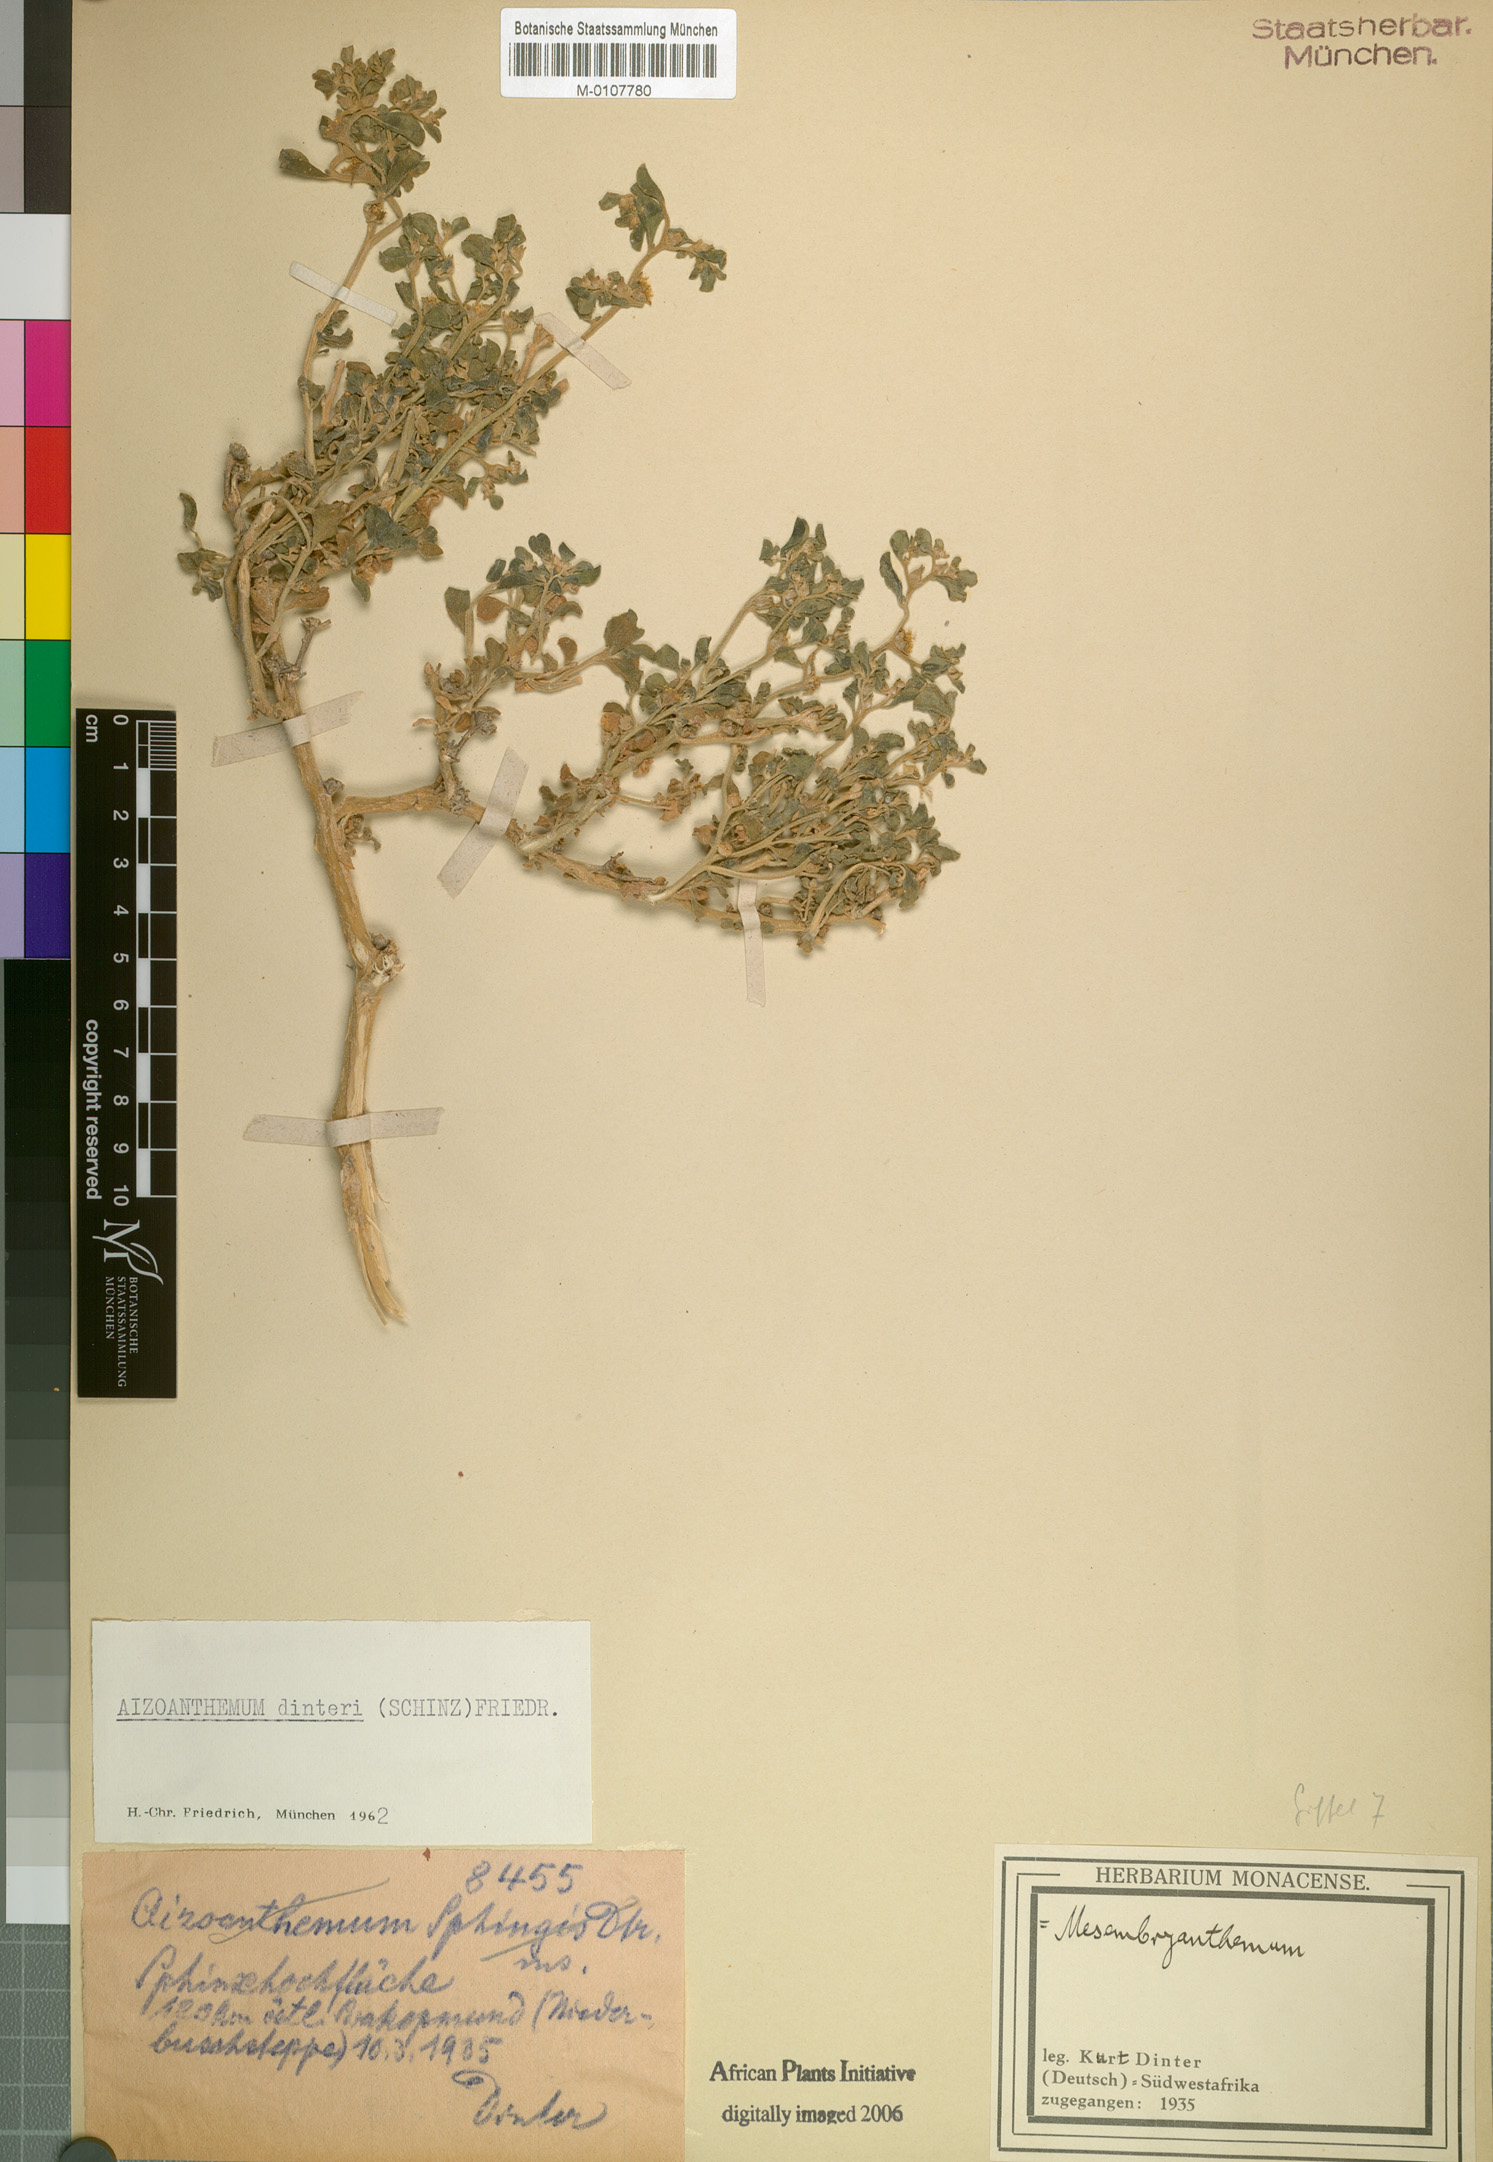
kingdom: Plantae
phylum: Tracheophyta
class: Magnoliopsida
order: Caryophyllales
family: Aizoaceae
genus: Aizoanthemum
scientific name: Aizoanthemum dinteri
